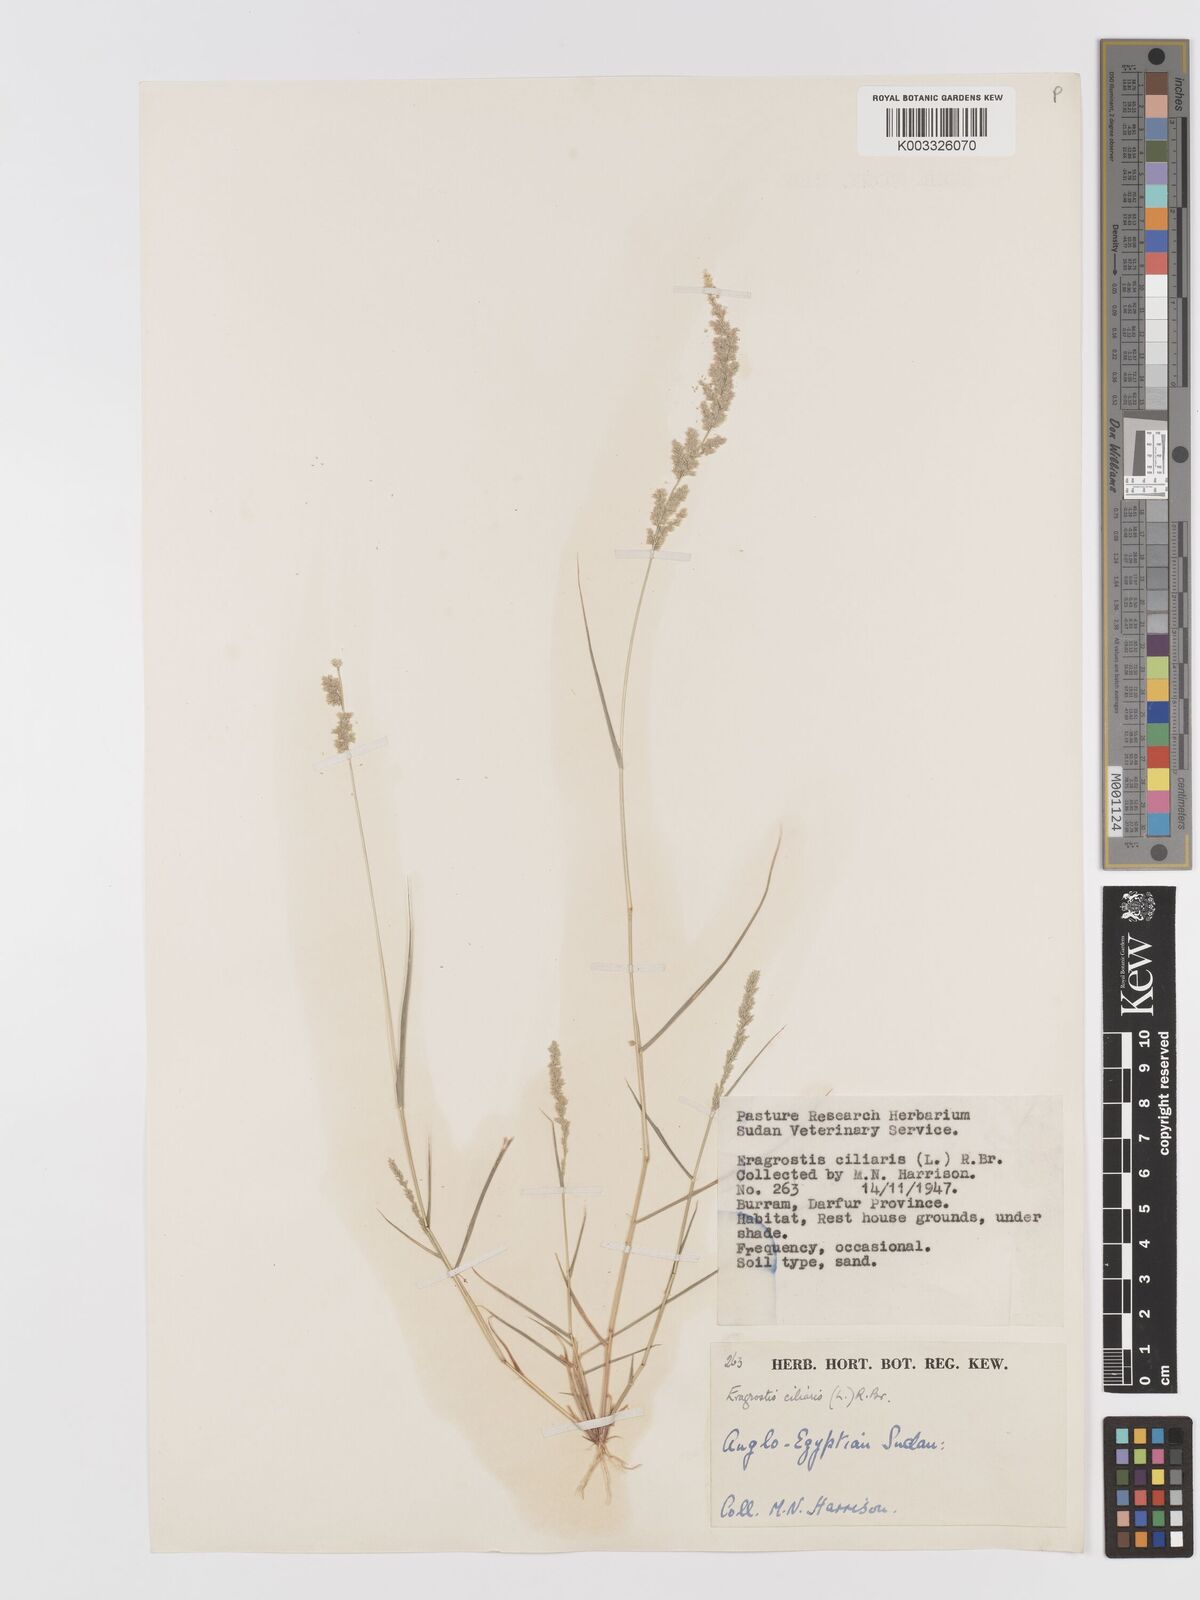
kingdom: Plantae
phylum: Tracheophyta
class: Liliopsida
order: Poales
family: Poaceae
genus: Eragrostis
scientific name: Eragrostis ciliaris
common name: Gophertail lovegrass
